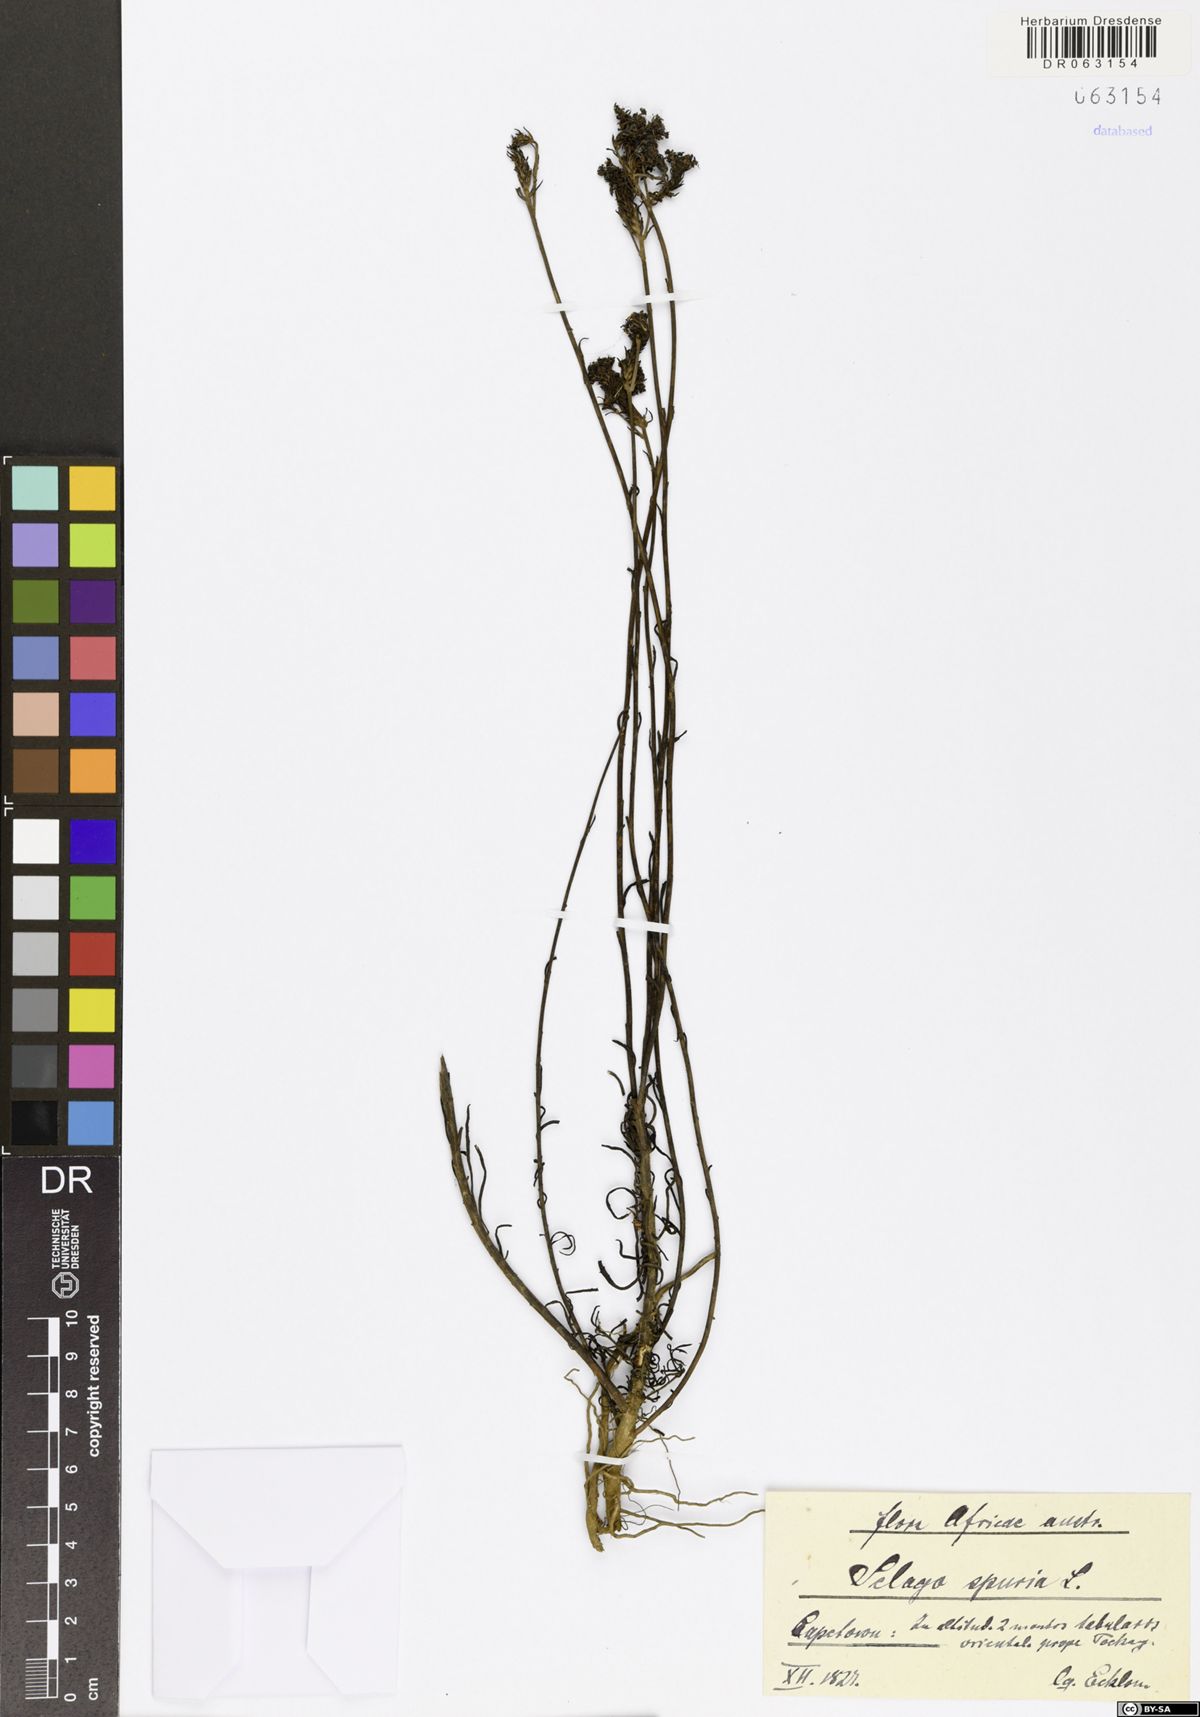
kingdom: Plantae
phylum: Tracheophyta
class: Magnoliopsida
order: Lamiales
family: Scrophulariaceae
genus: Pseudoselago
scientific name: Pseudoselago spuria
